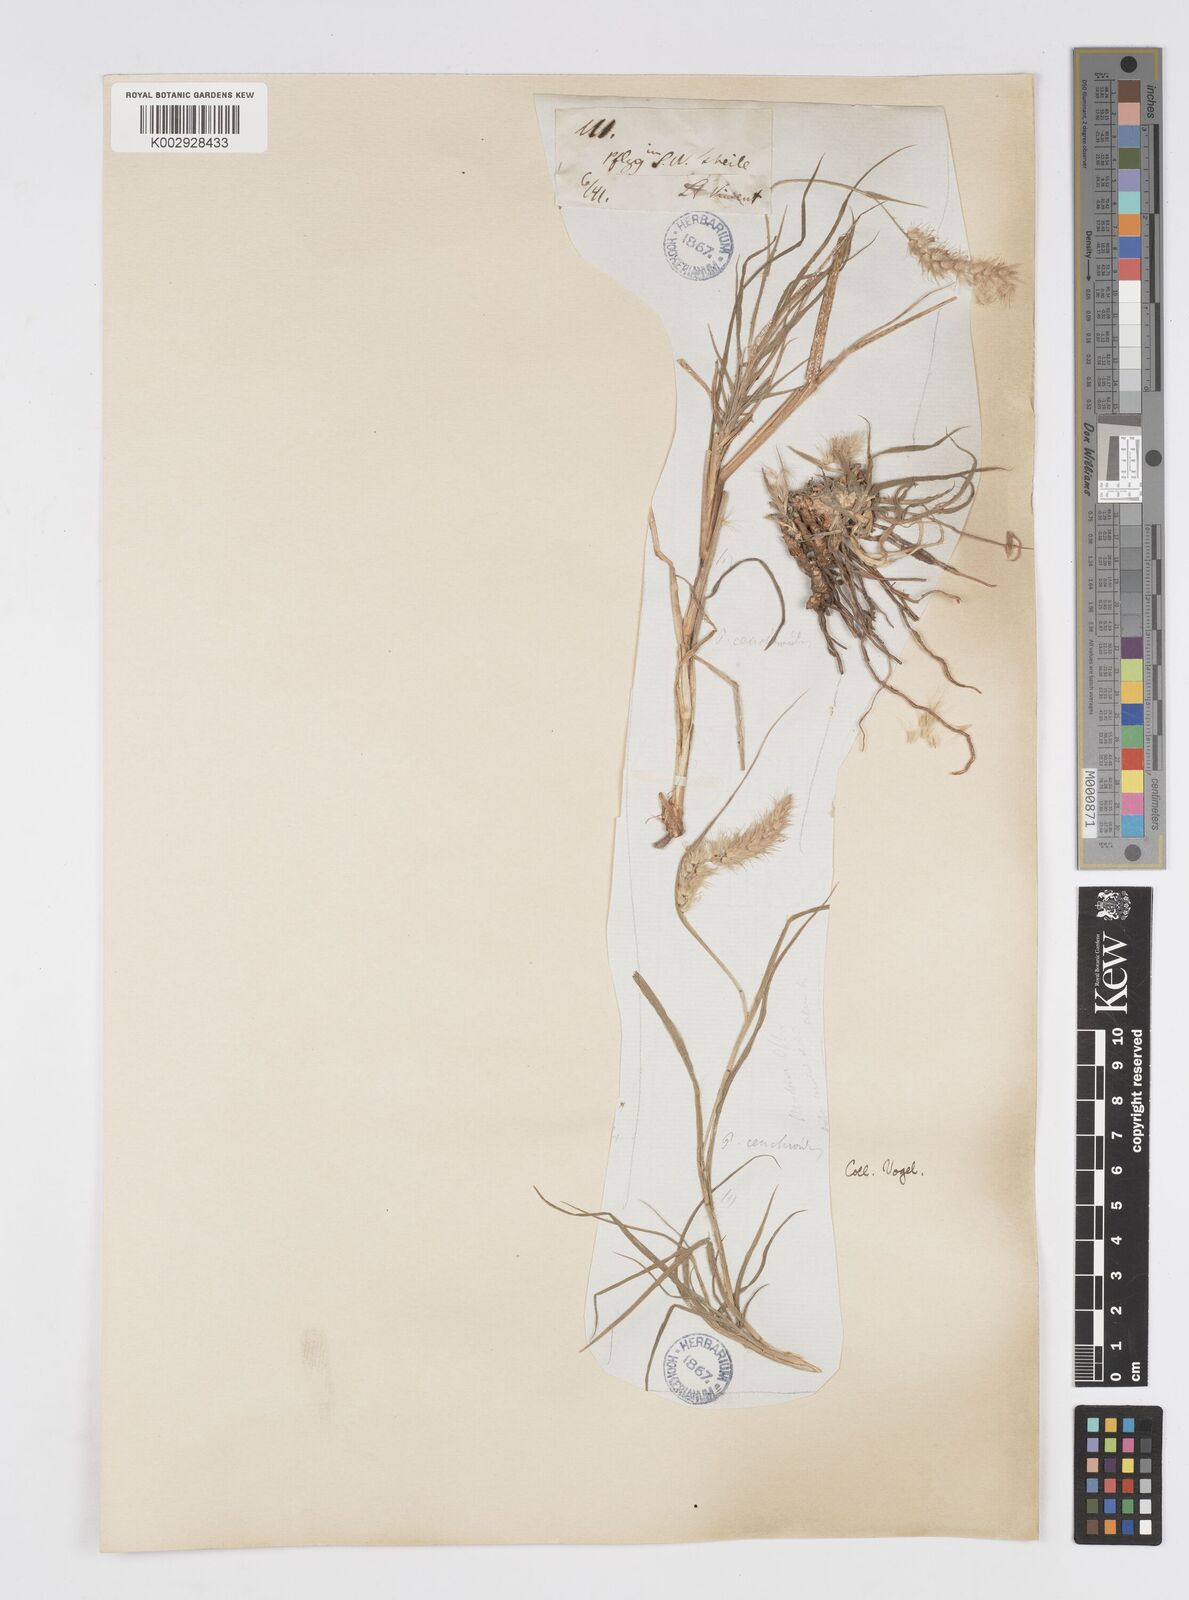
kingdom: Plantae
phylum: Tracheophyta
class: Liliopsida
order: Poales
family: Poaceae
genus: Cenchrus
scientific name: Cenchrus ciliaris
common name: Buffelgrass
